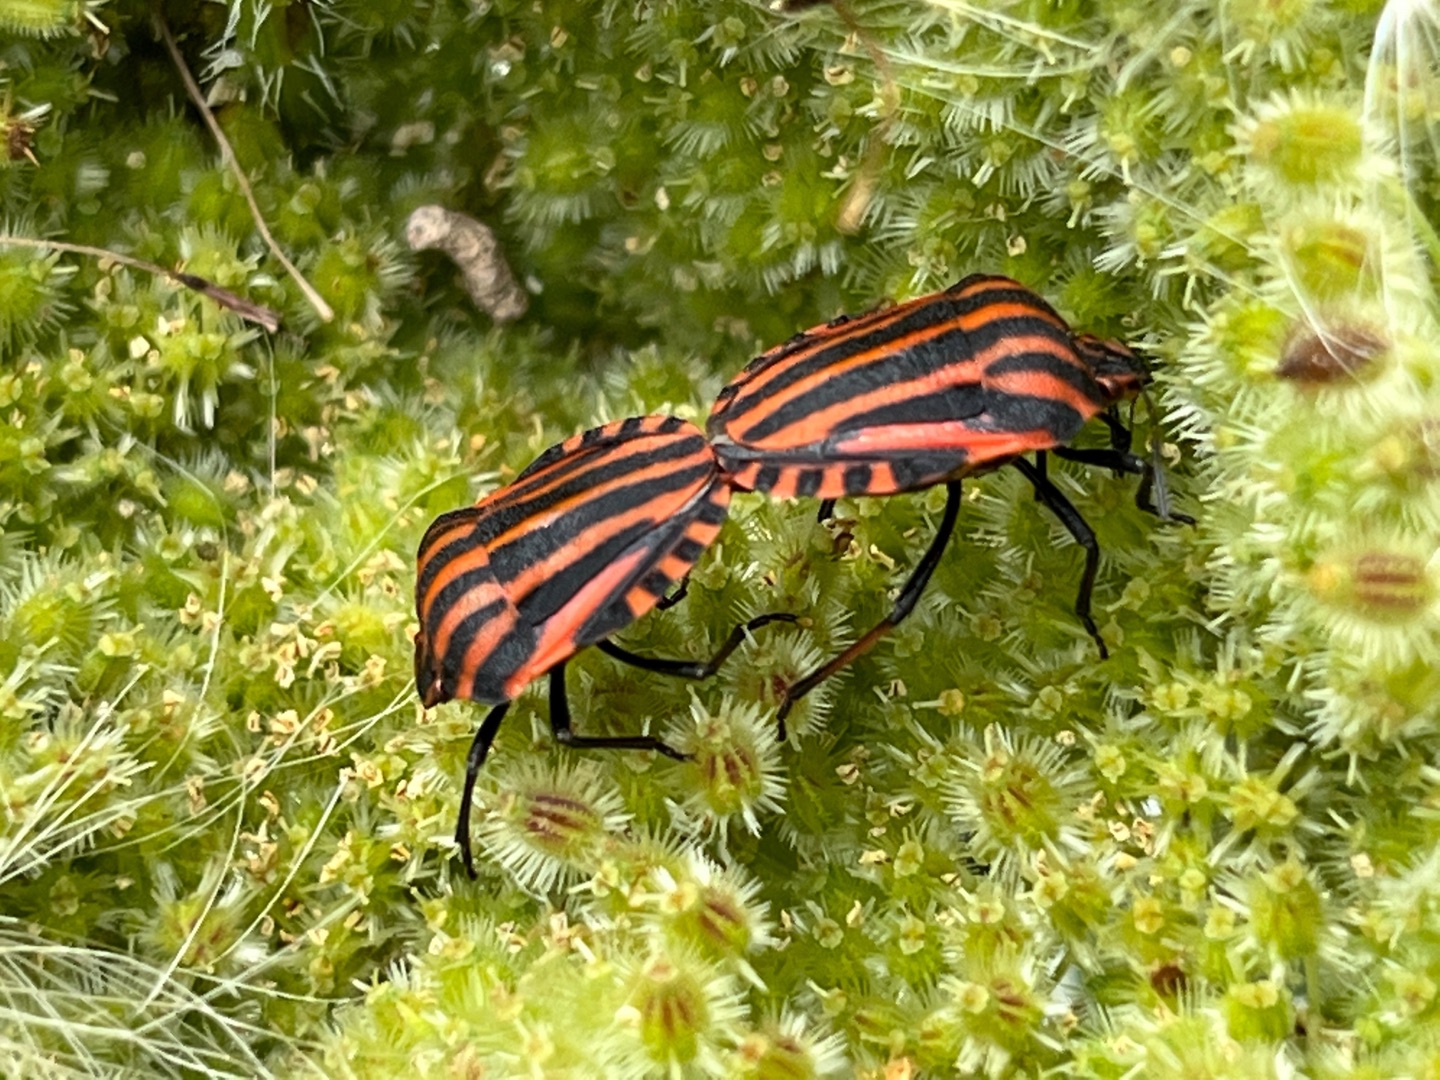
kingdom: Animalia
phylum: Arthropoda
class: Insecta
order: Hemiptera
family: Pentatomidae
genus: Graphosoma
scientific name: Graphosoma italicum
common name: Stribetæge
